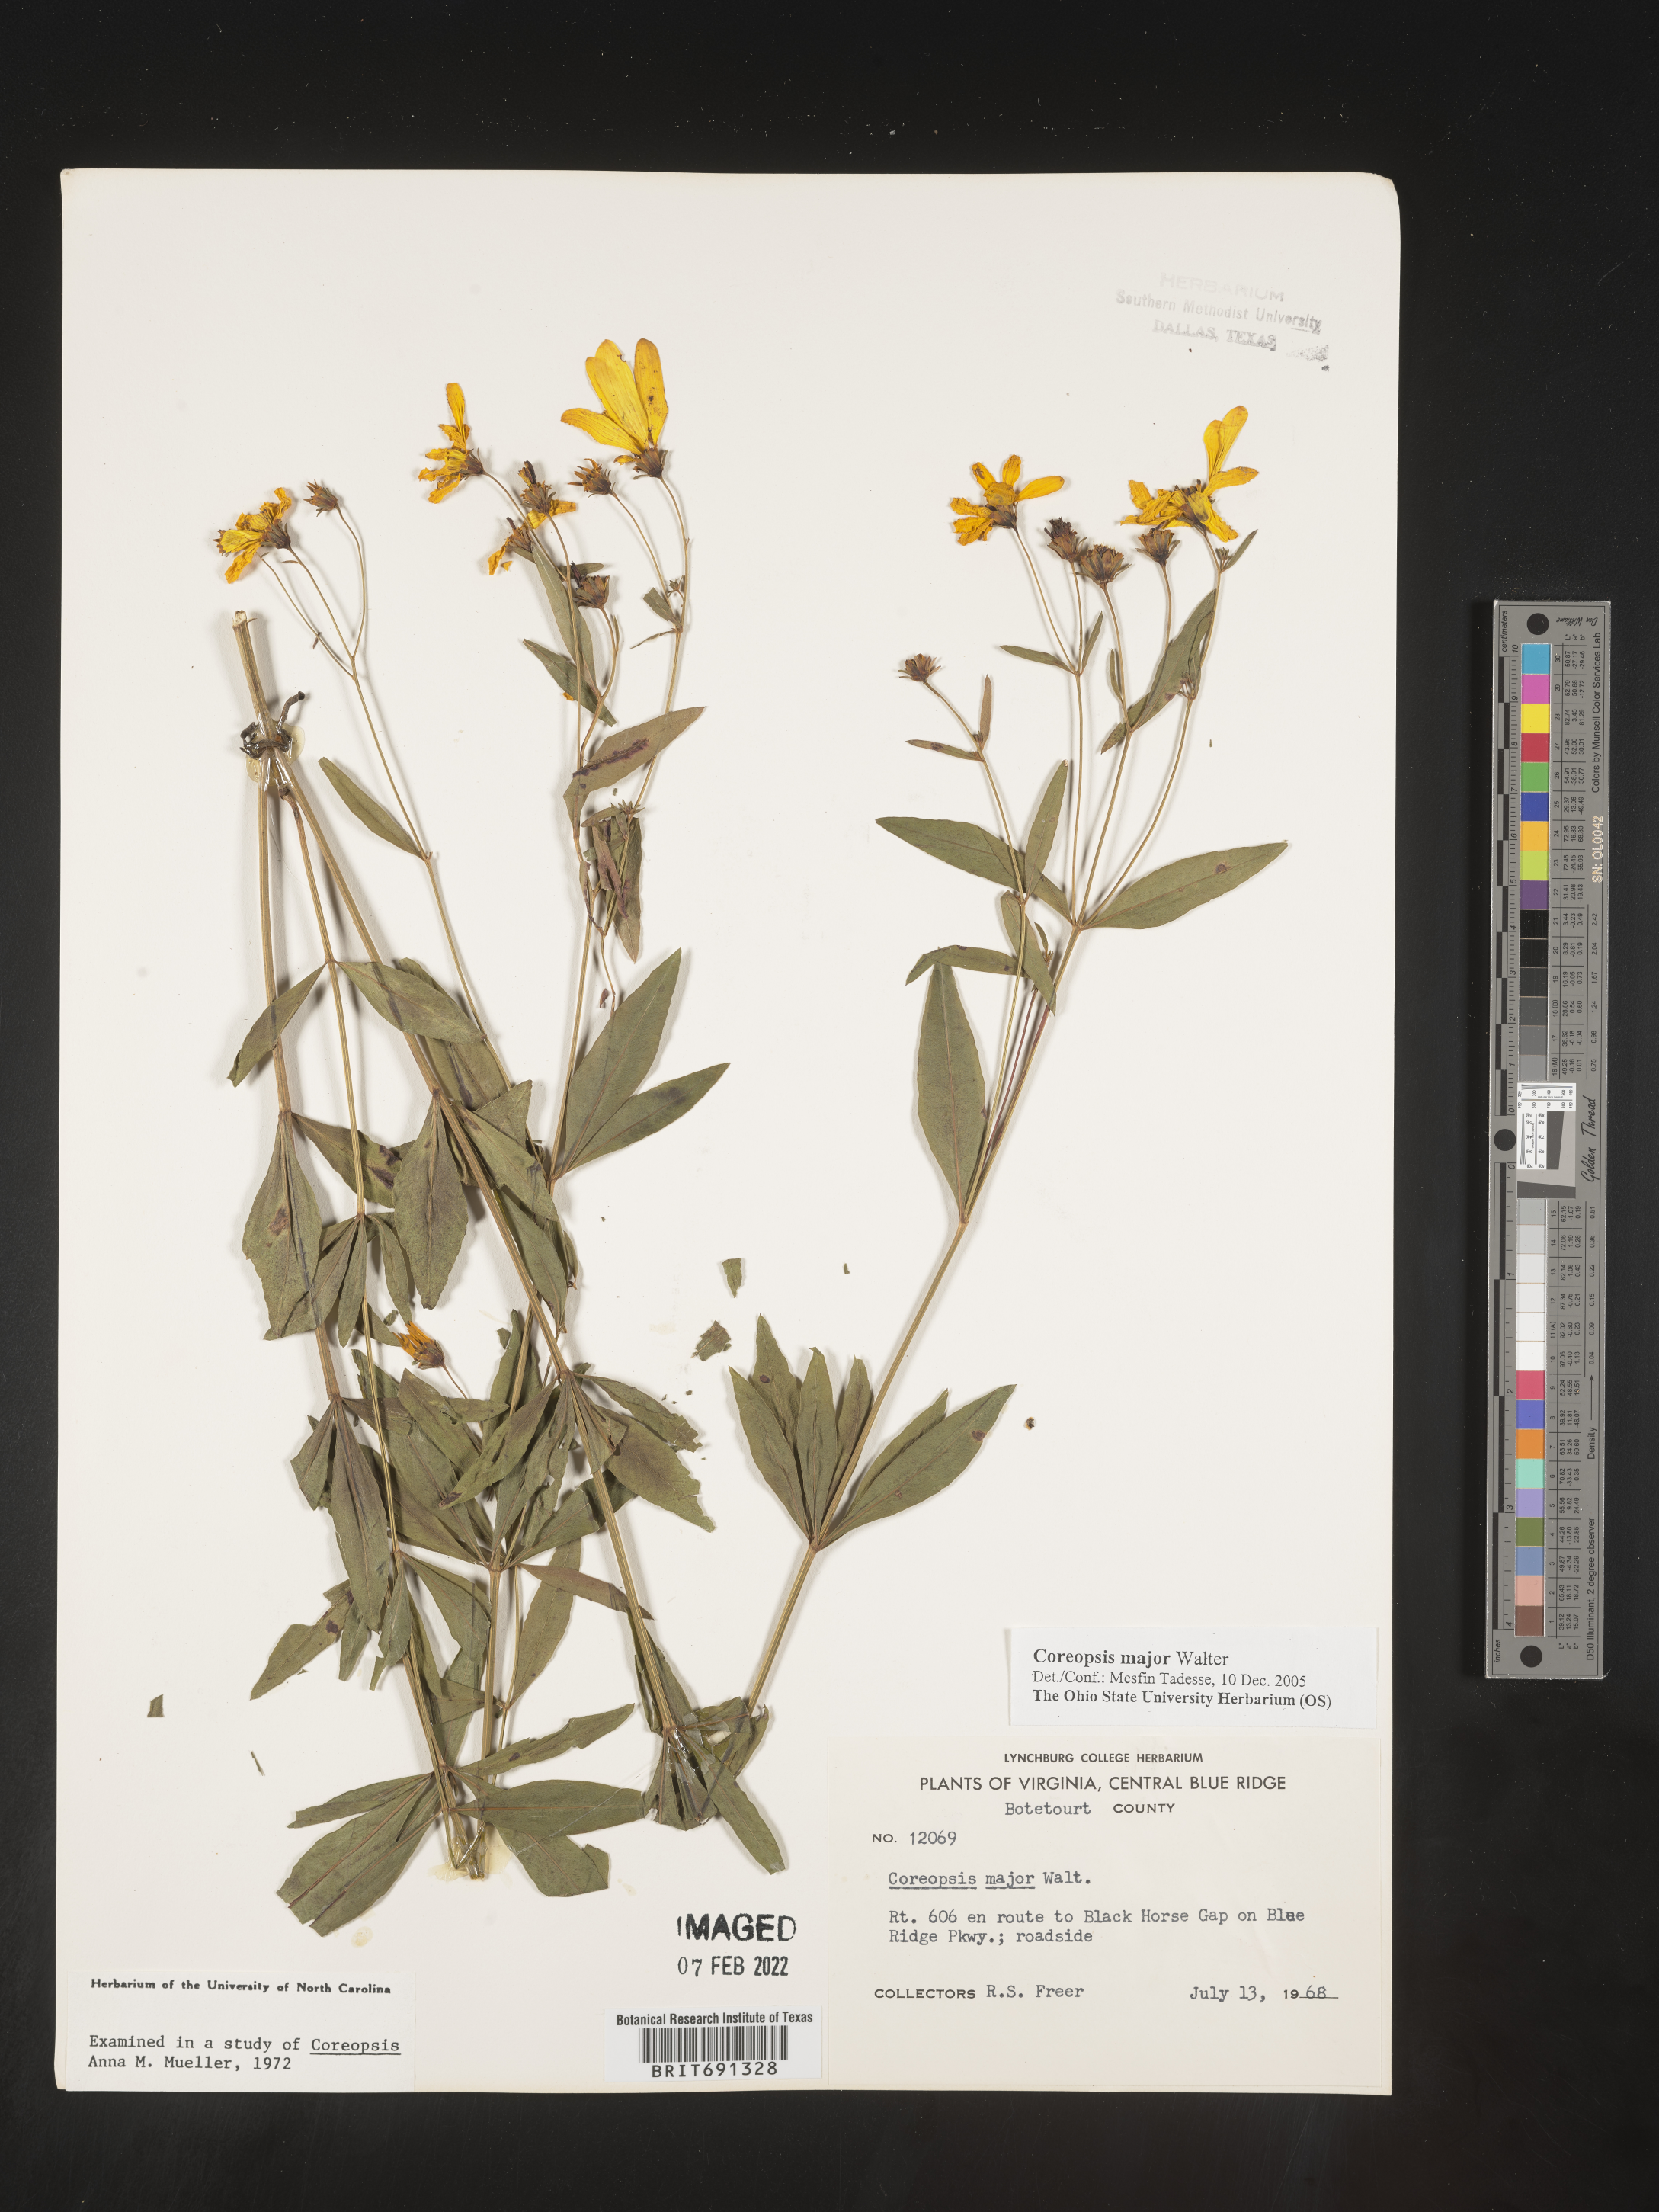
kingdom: Plantae
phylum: Tracheophyta
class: Magnoliopsida
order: Asterales
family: Asteraceae
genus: Coreopsis
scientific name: Coreopsis major
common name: Forest tickseed
